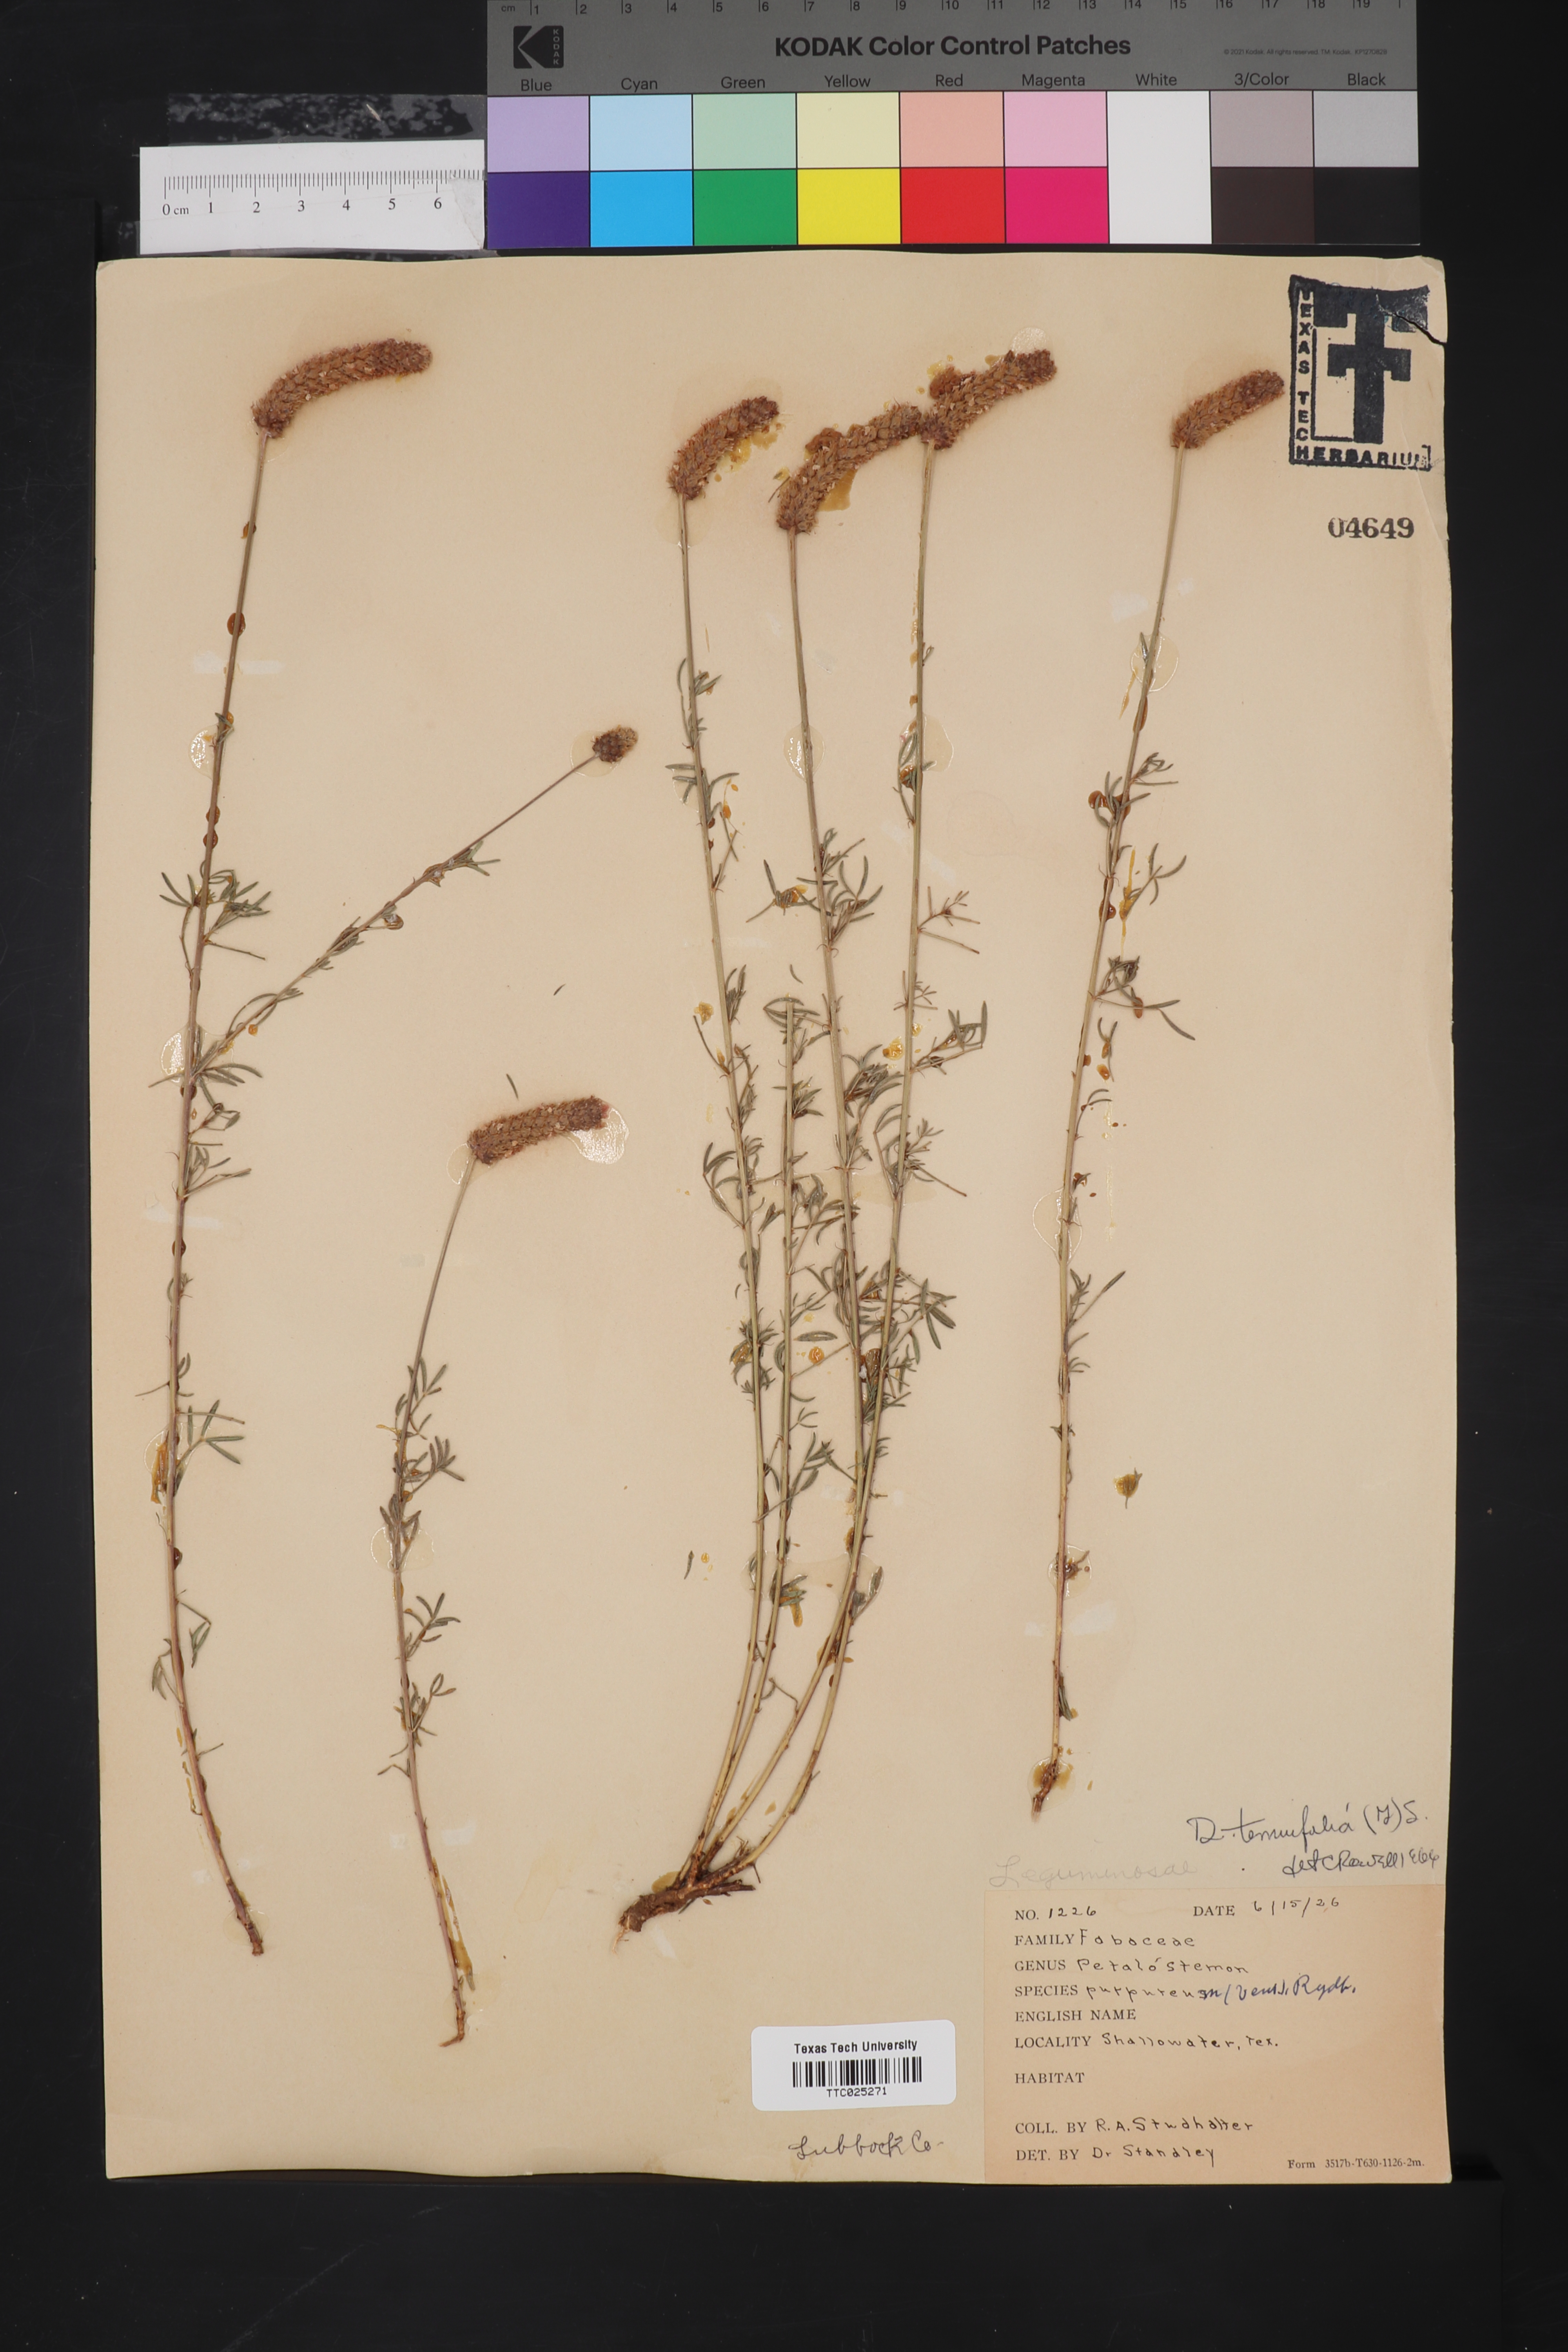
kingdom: Plantae
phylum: Tracheophyta
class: Magnoliopsida
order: Brassicales
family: Brassicaceae
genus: Diplotaxis
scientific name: Diplotaxis tenuifolia
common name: Perennial wall-rocket
